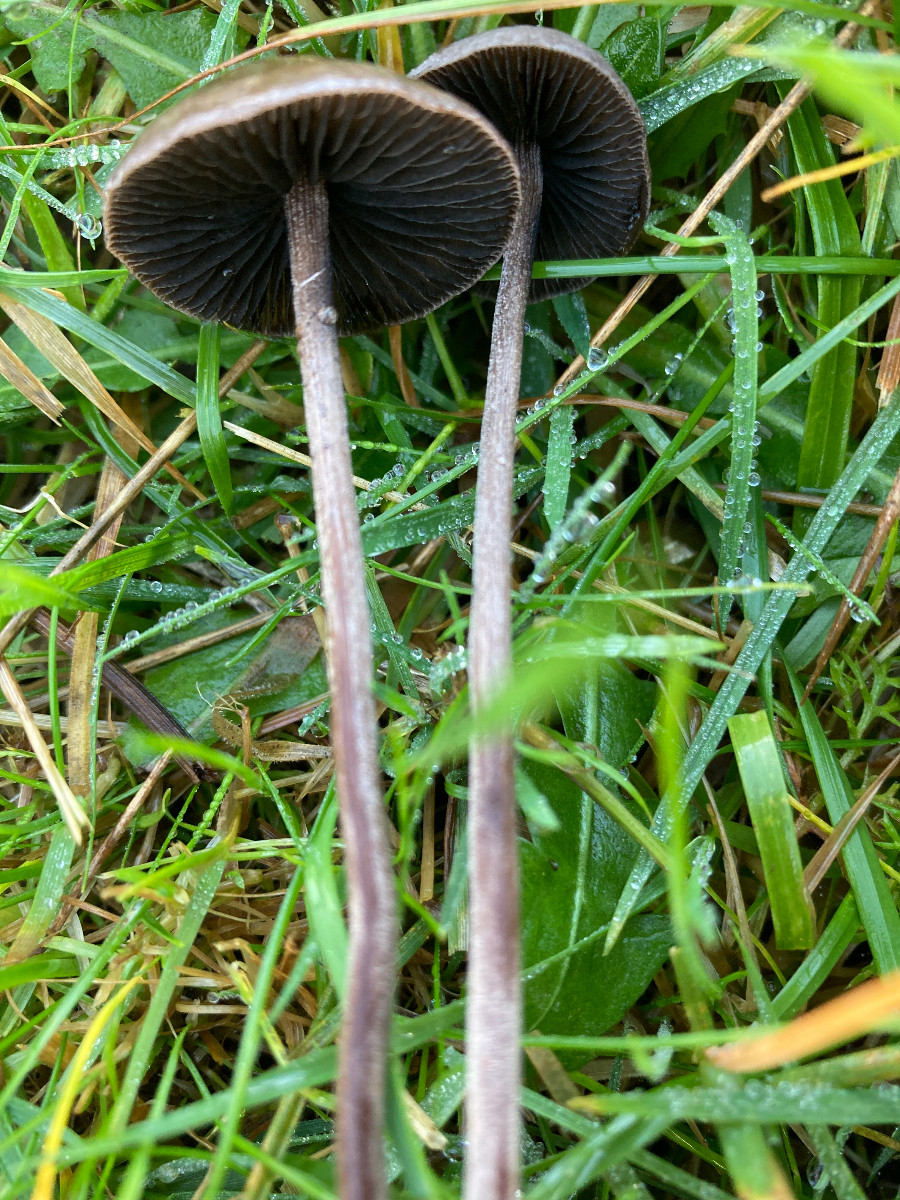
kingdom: Fungi
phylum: Basidiomycota
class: Agaricomycetes
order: Agaricales
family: Bolbitiaceae
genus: Panaeolus
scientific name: Panaeolus acuminatus
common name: høj glanshat
